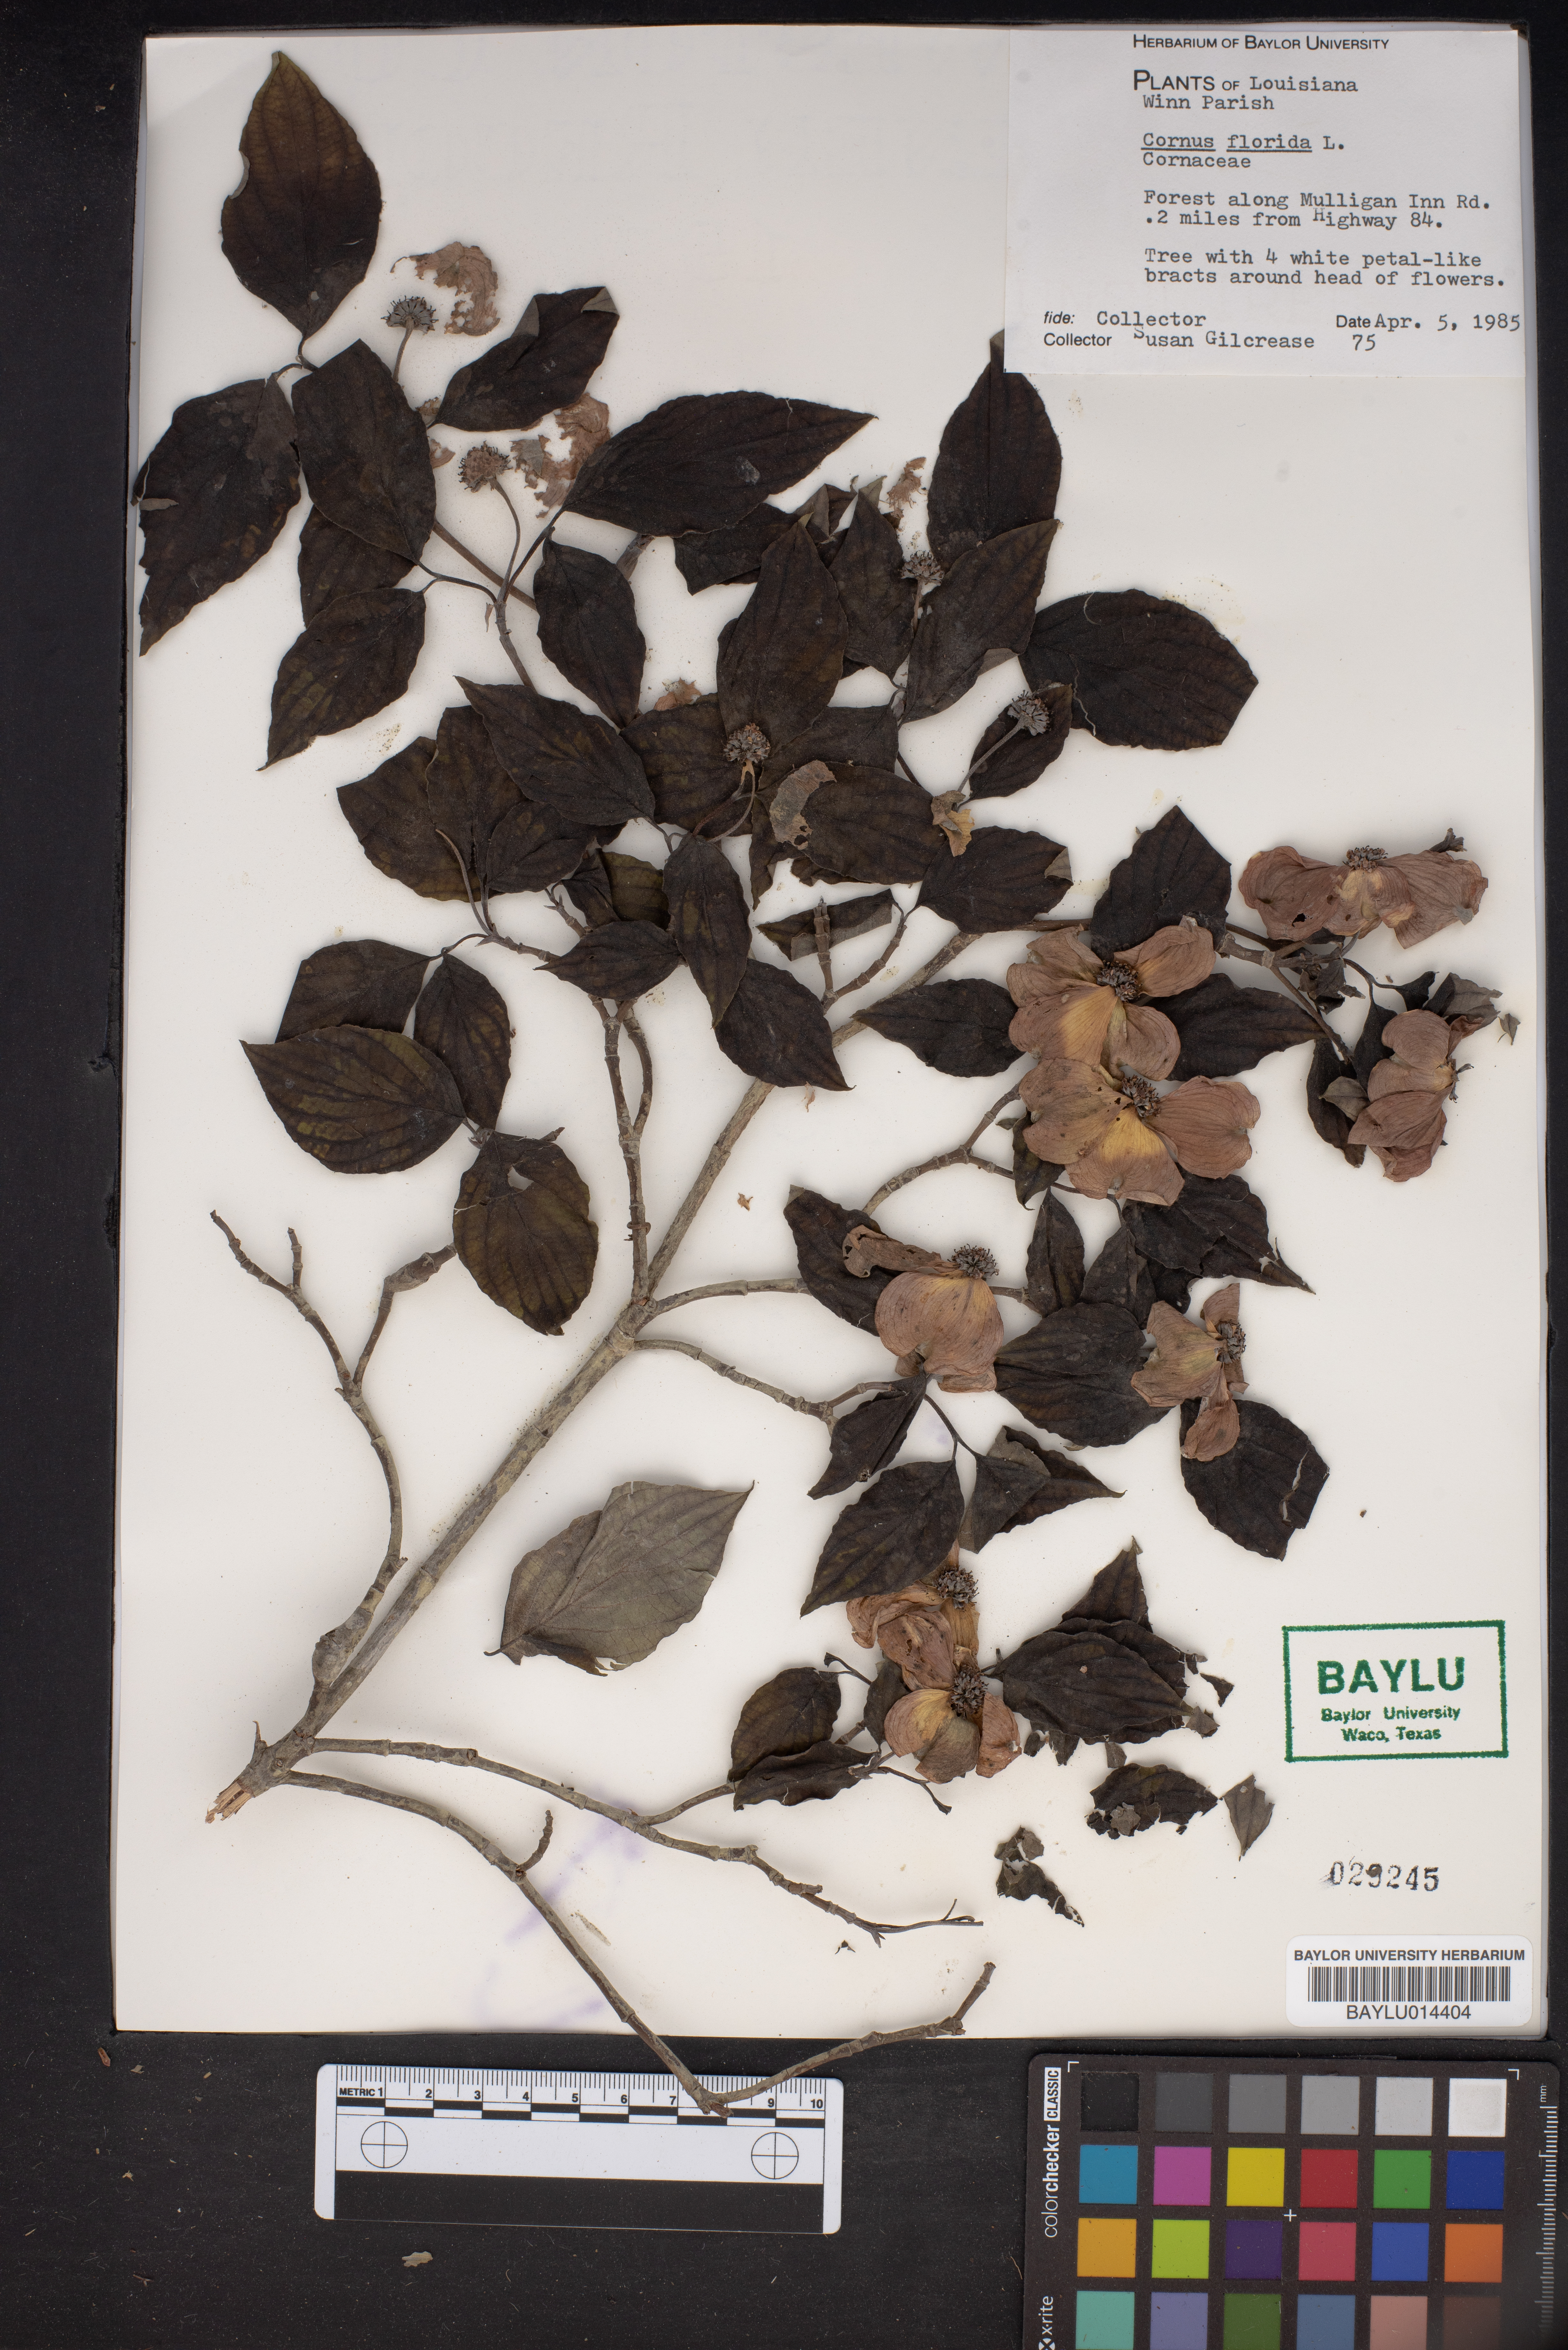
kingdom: Plantae
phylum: Tracheophyta
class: Magnoliopsida
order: Cornales
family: Cornaceae
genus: Cornus
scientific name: Cornus florida
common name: Flowering dogwood
